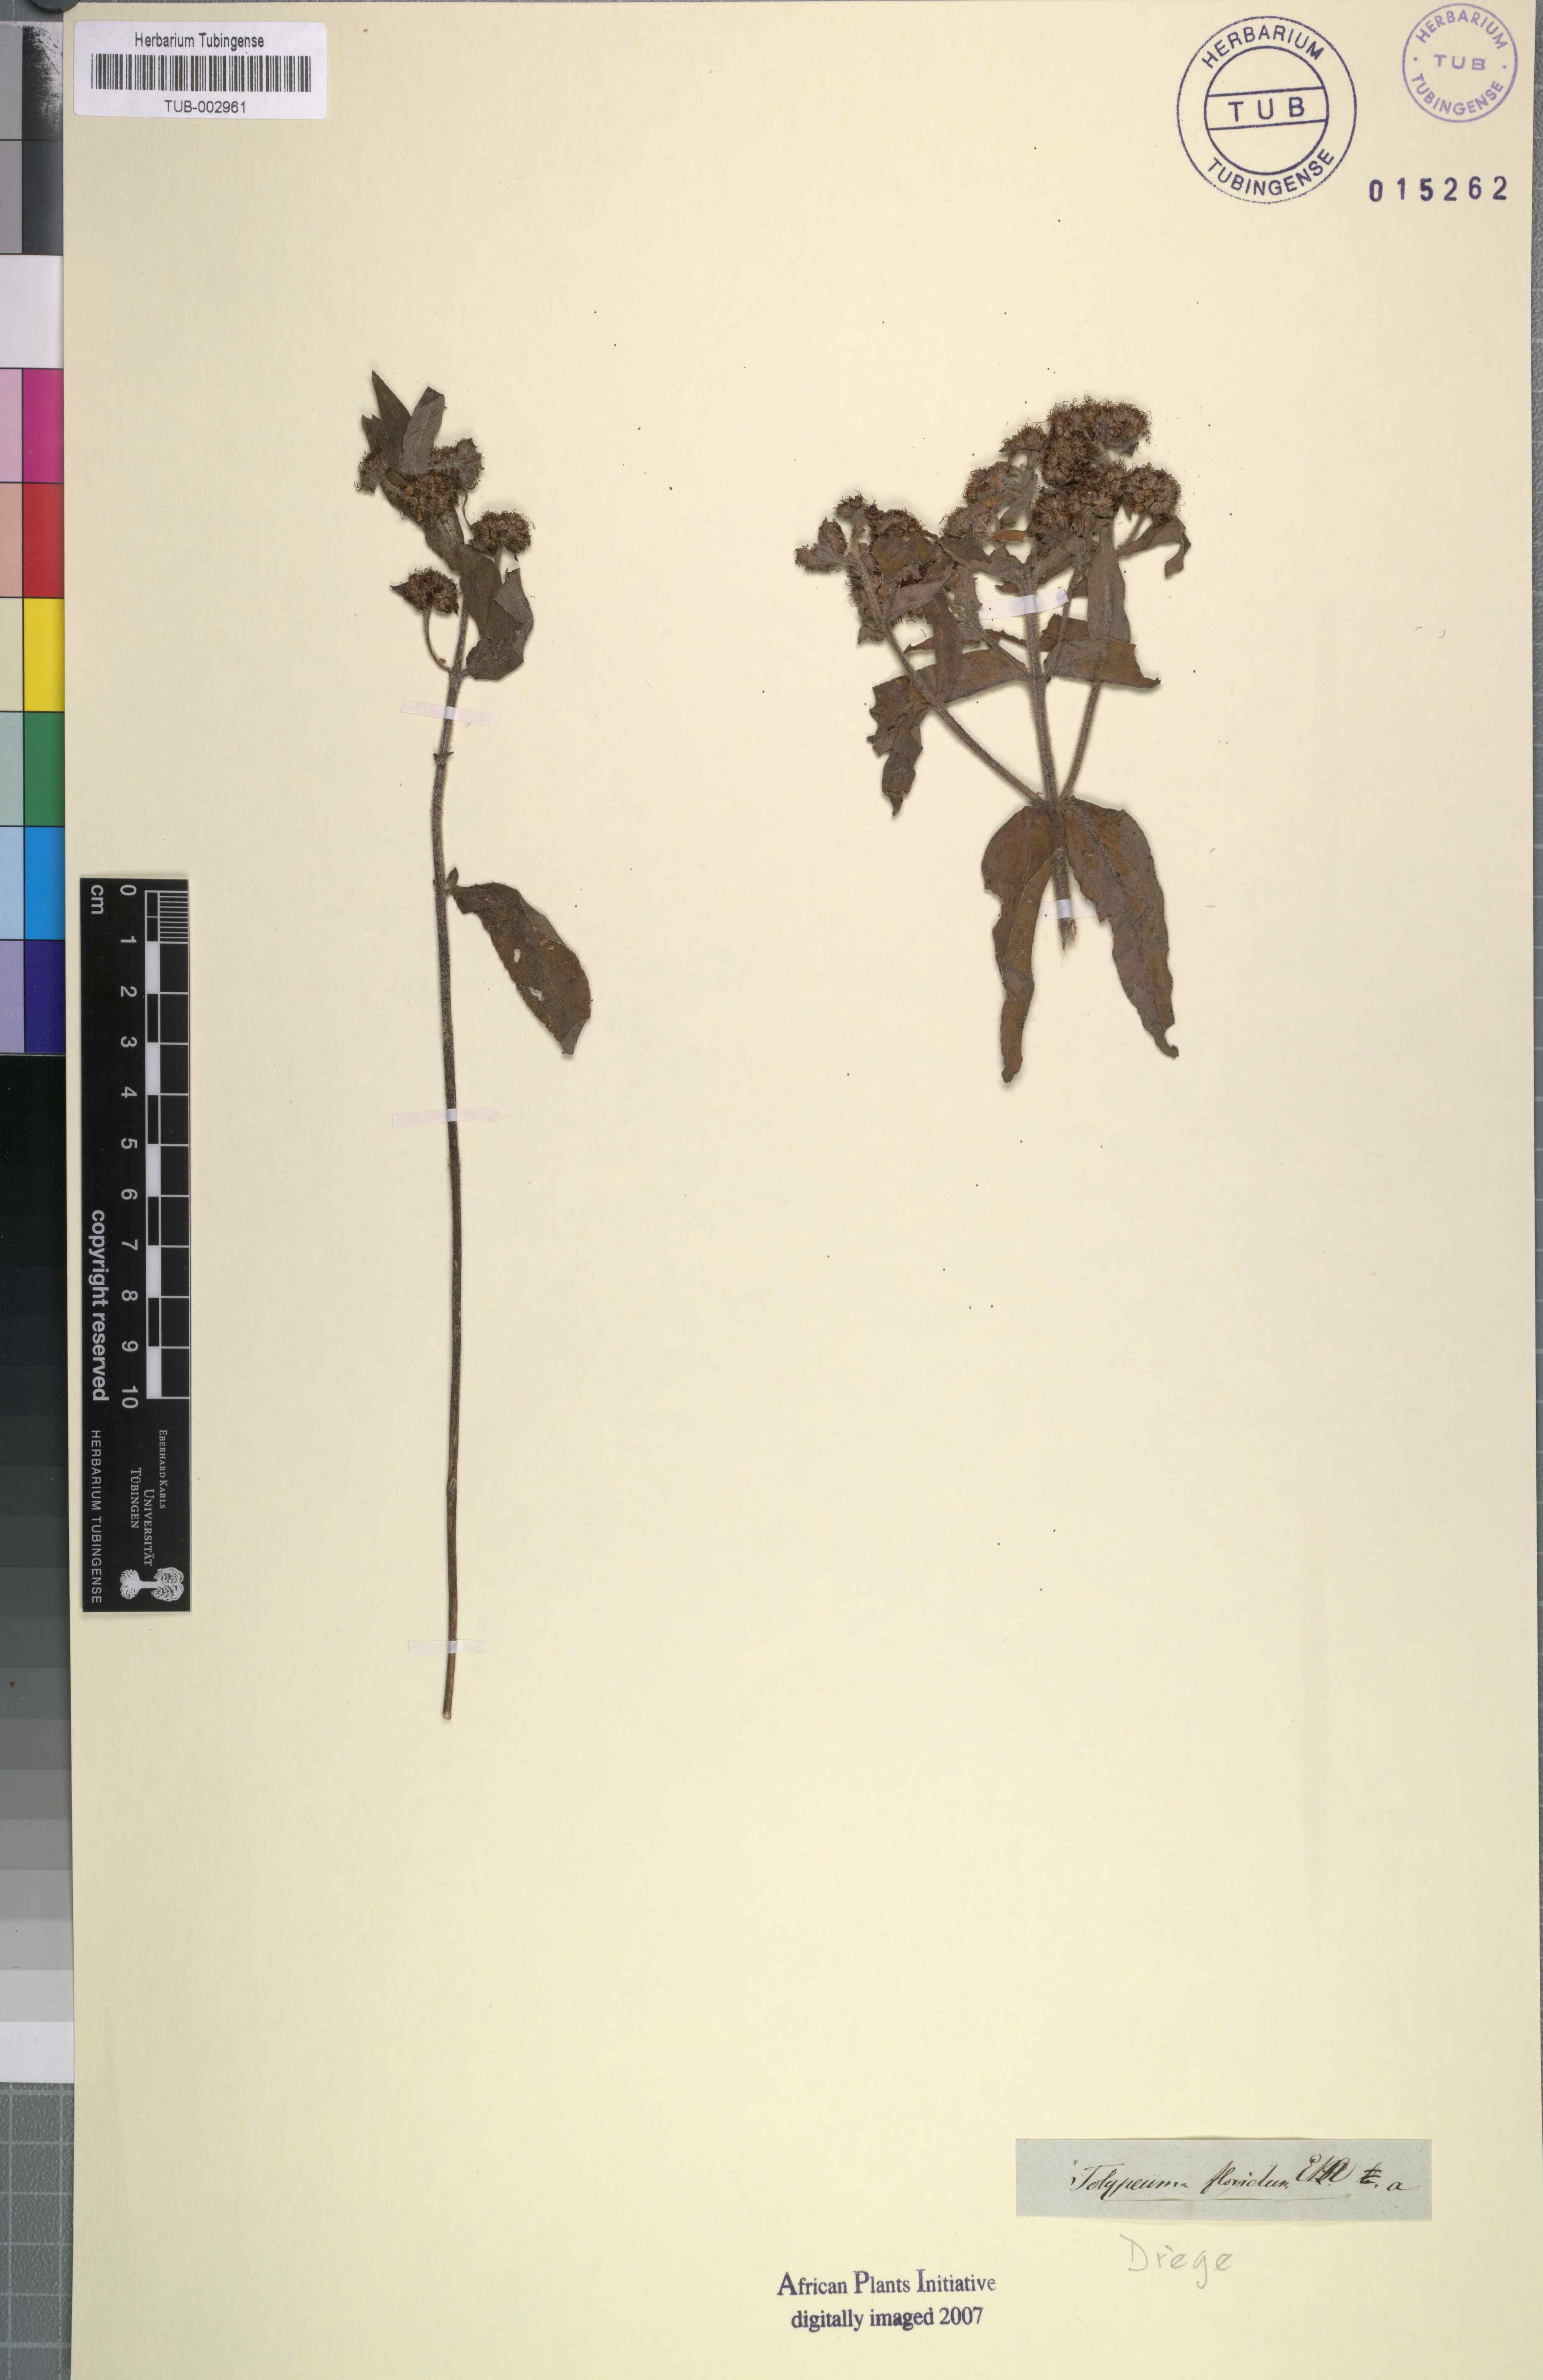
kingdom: Plantae
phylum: Tracheophyta
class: Magnoliopsida
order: Myrtales
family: Lythraceae
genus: Ammannia
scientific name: Ammannia radicans
